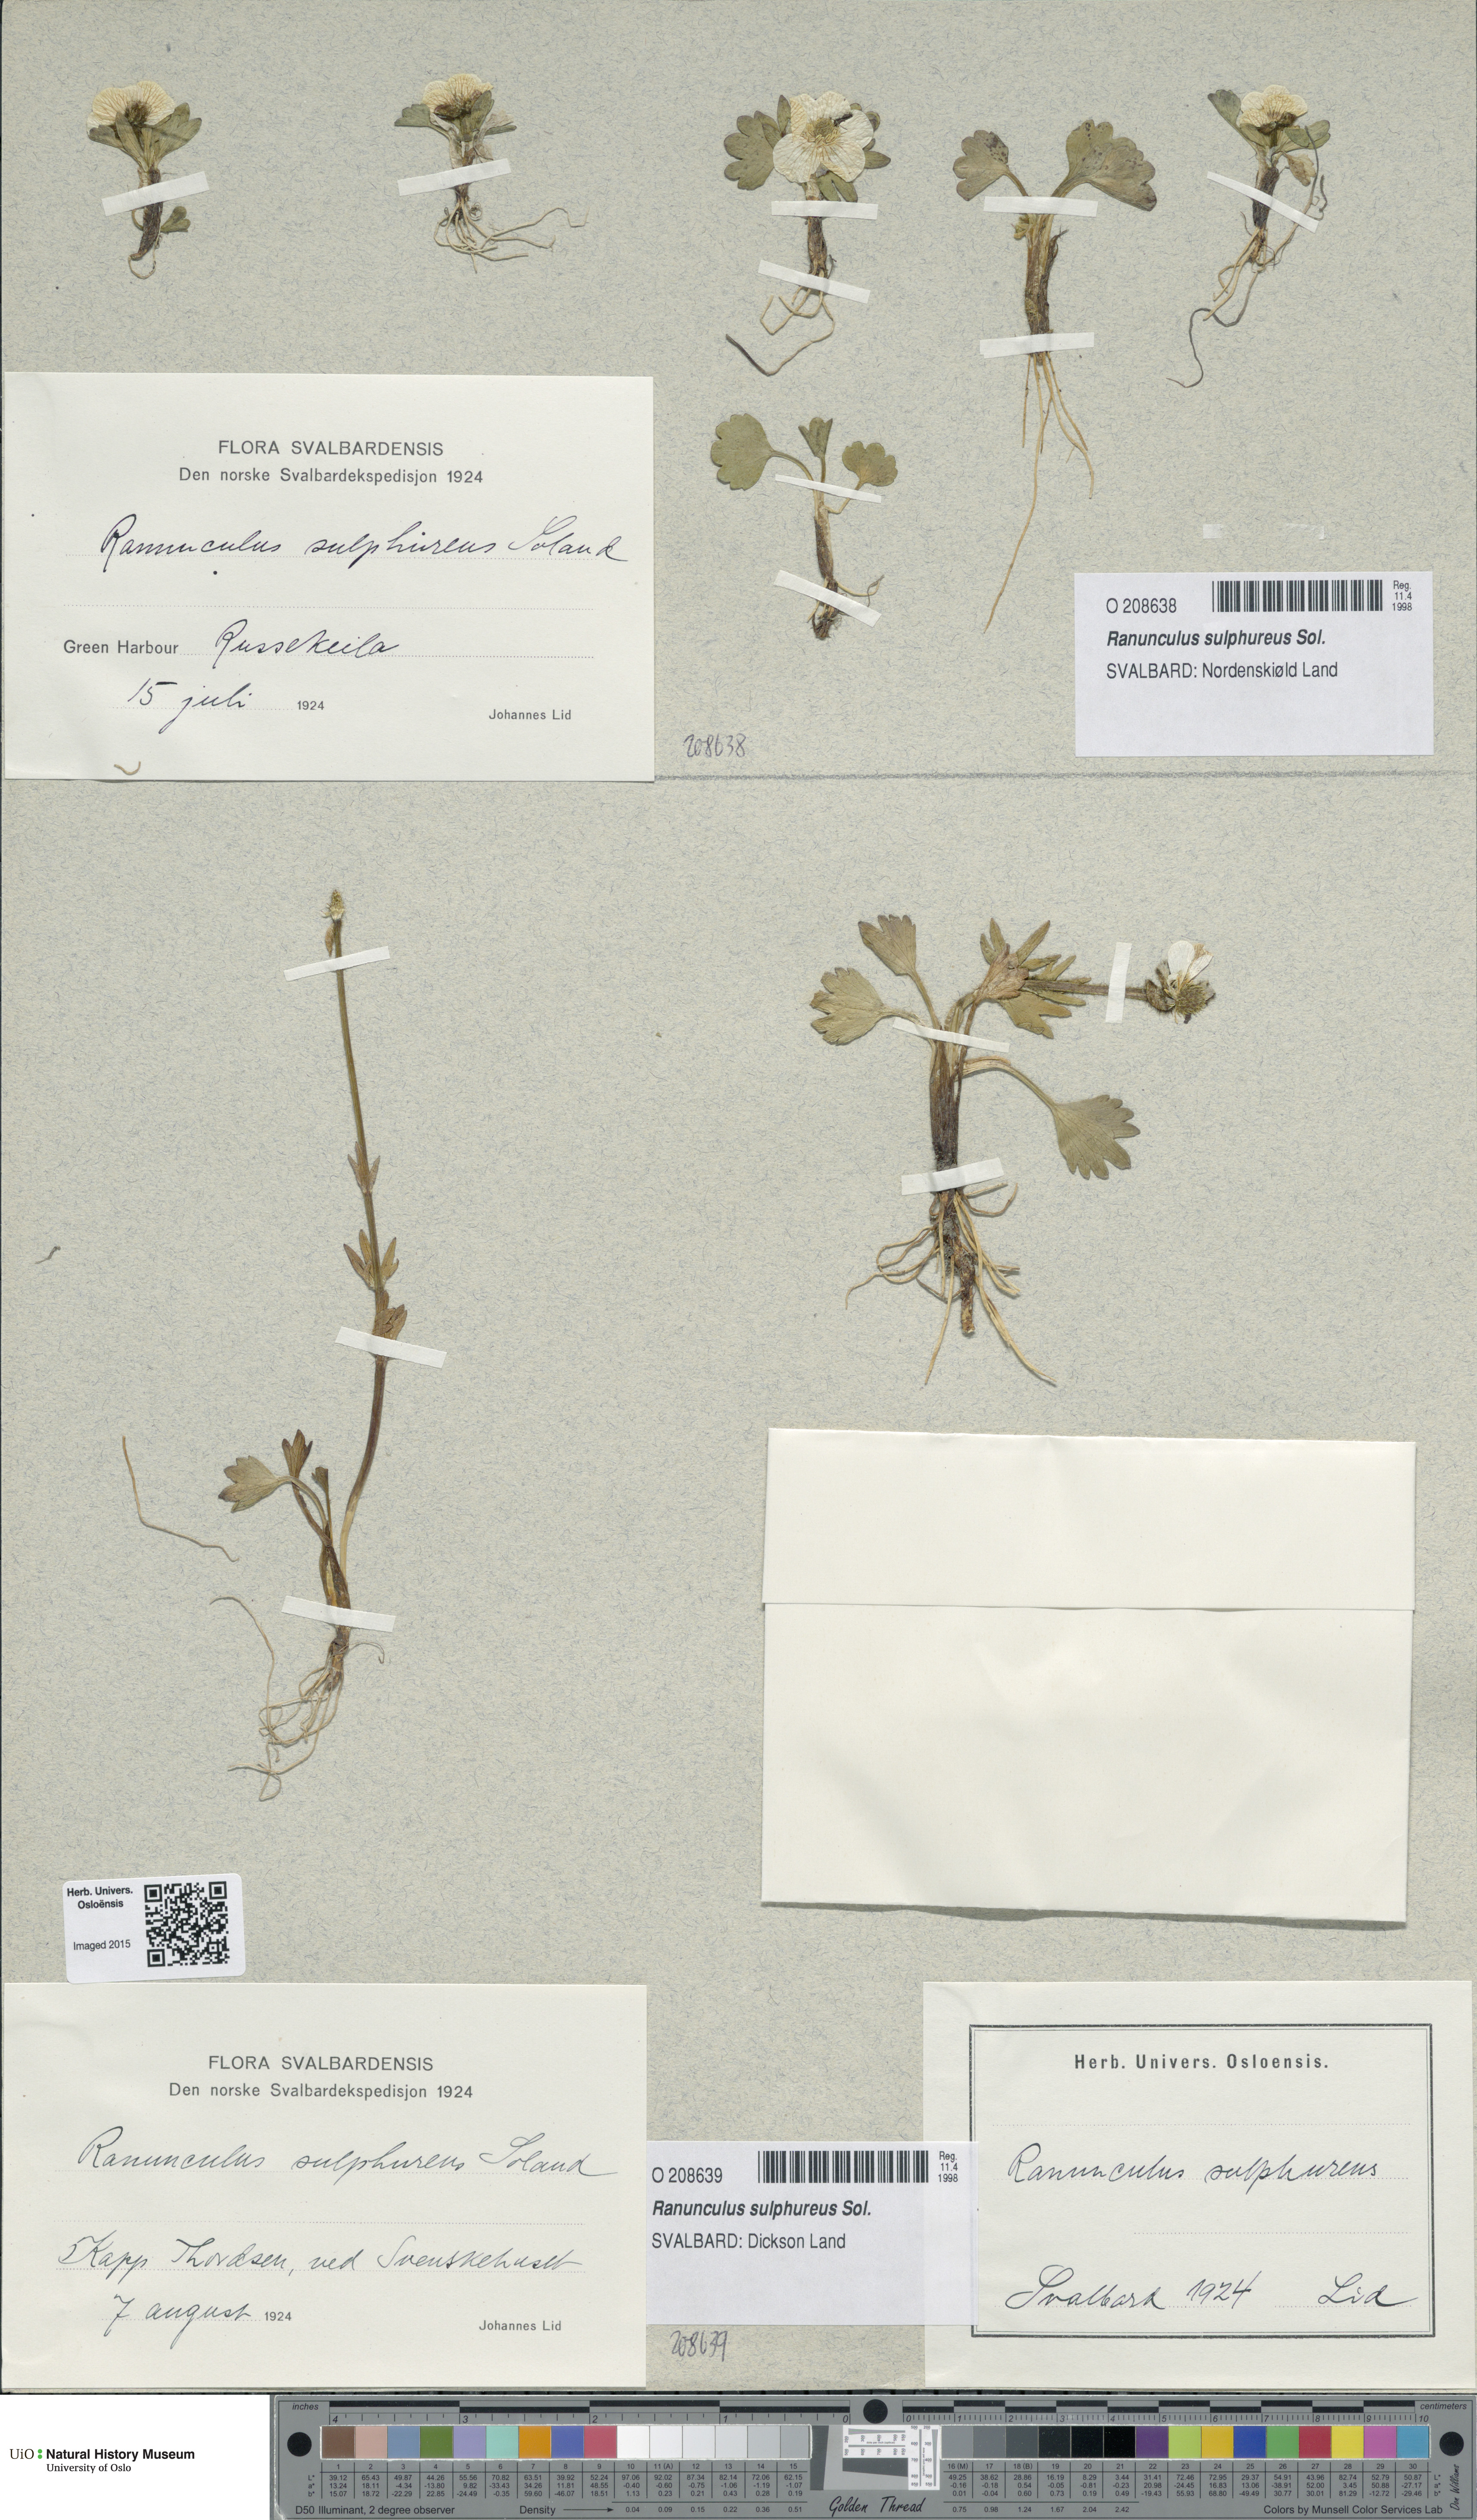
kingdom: Plantae
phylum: Tracheophyta
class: Magnoliopsida
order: Ranunculales
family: Ranunculaceae
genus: Ranunculus
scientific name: Ranunculus sulphureus
